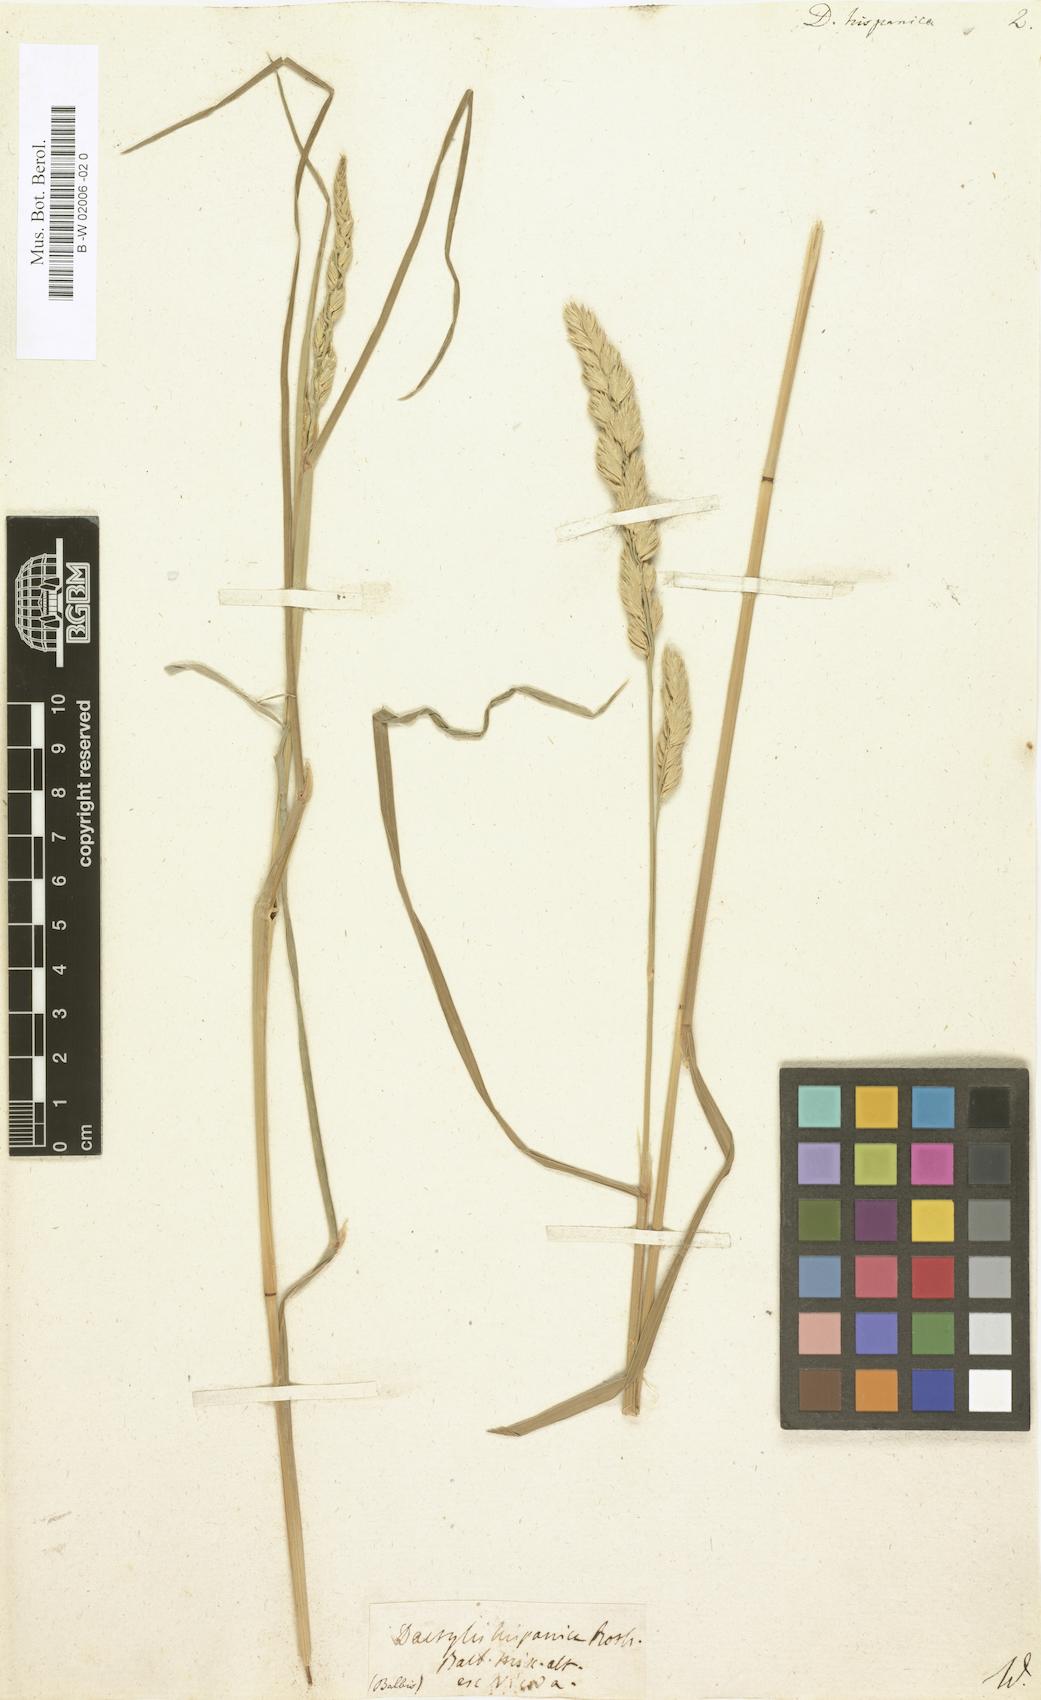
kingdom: Plantae
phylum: Tracheophyta
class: Liliopsida
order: Poales
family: Poaceae
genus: Dactylis
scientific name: Dactylis glomerata
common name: Orchardgrass
